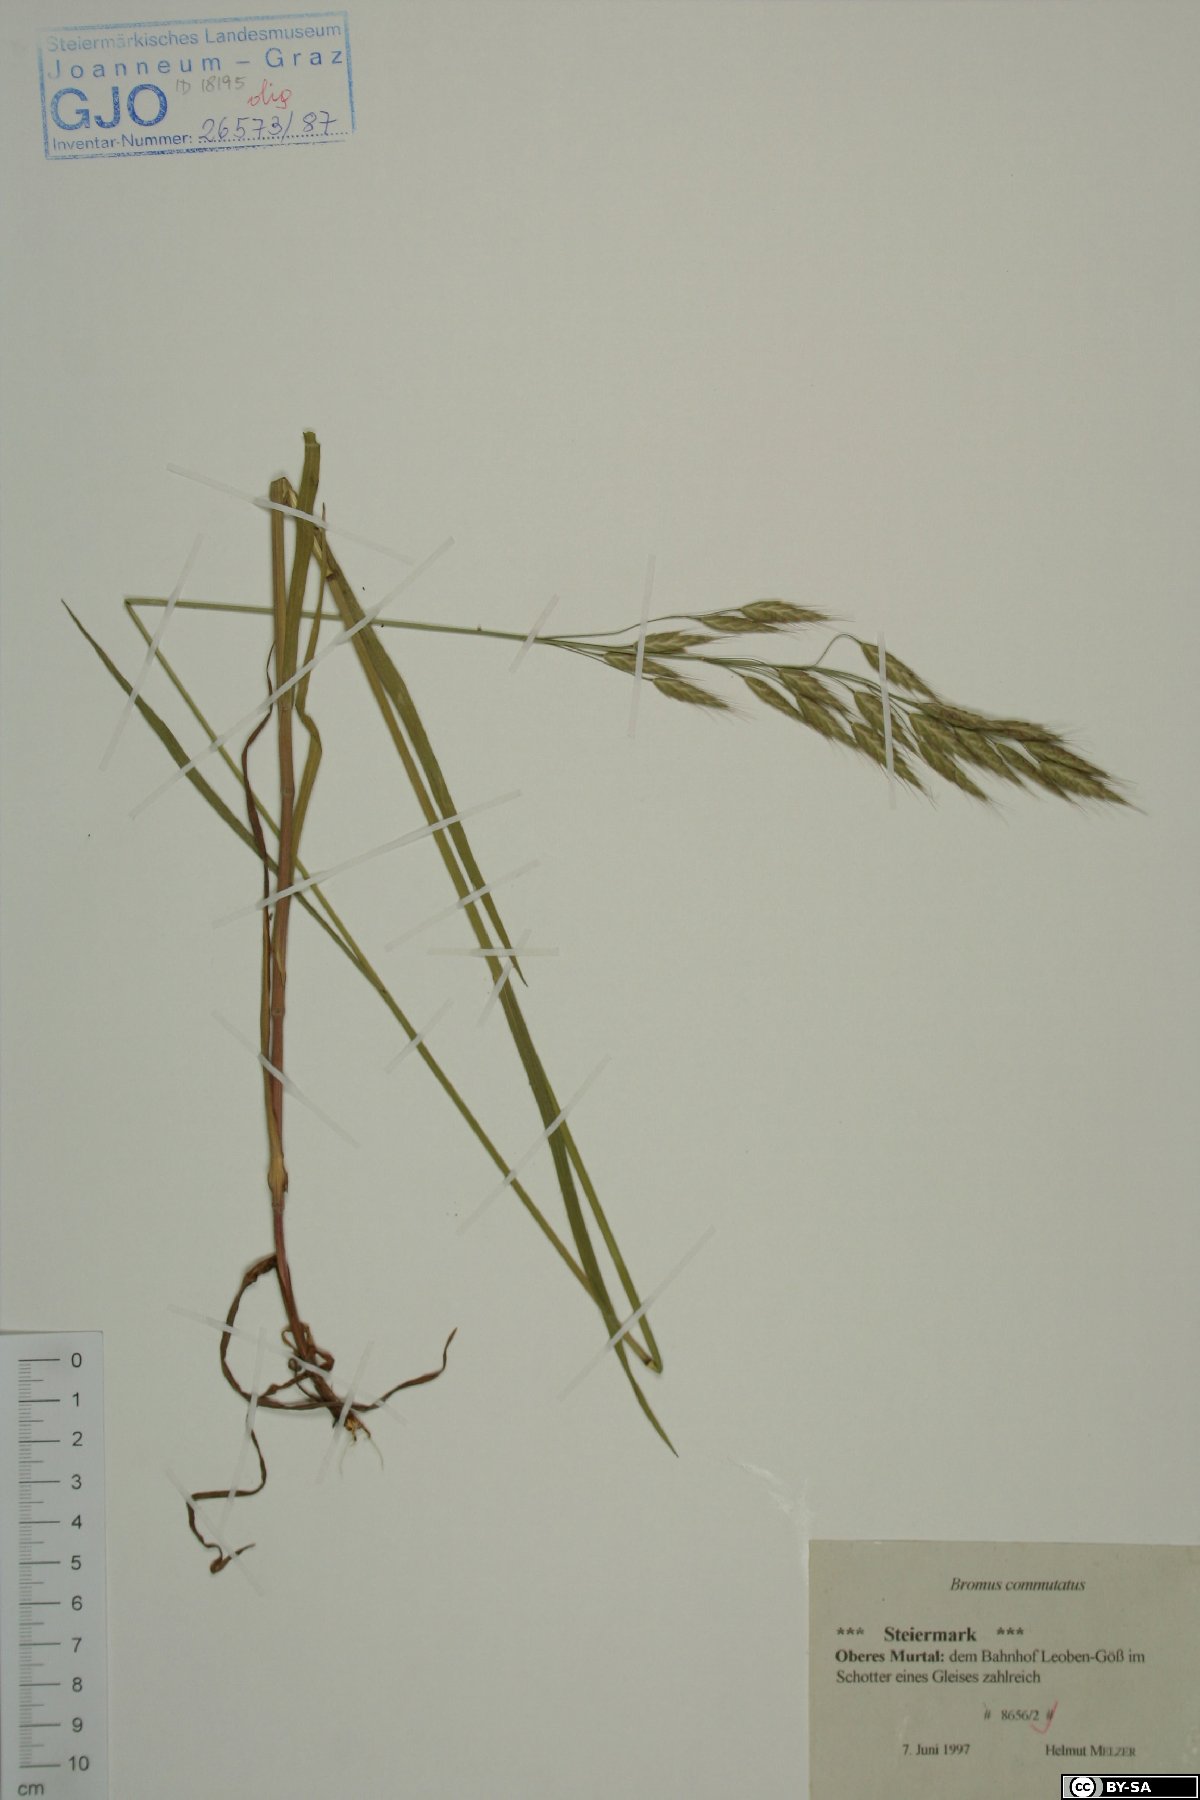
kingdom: Plantae
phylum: Tracheophyta
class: Liliopsida
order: Poales
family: Poaceae
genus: Bromus
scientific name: Bromus commutatus
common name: Meadow brome
